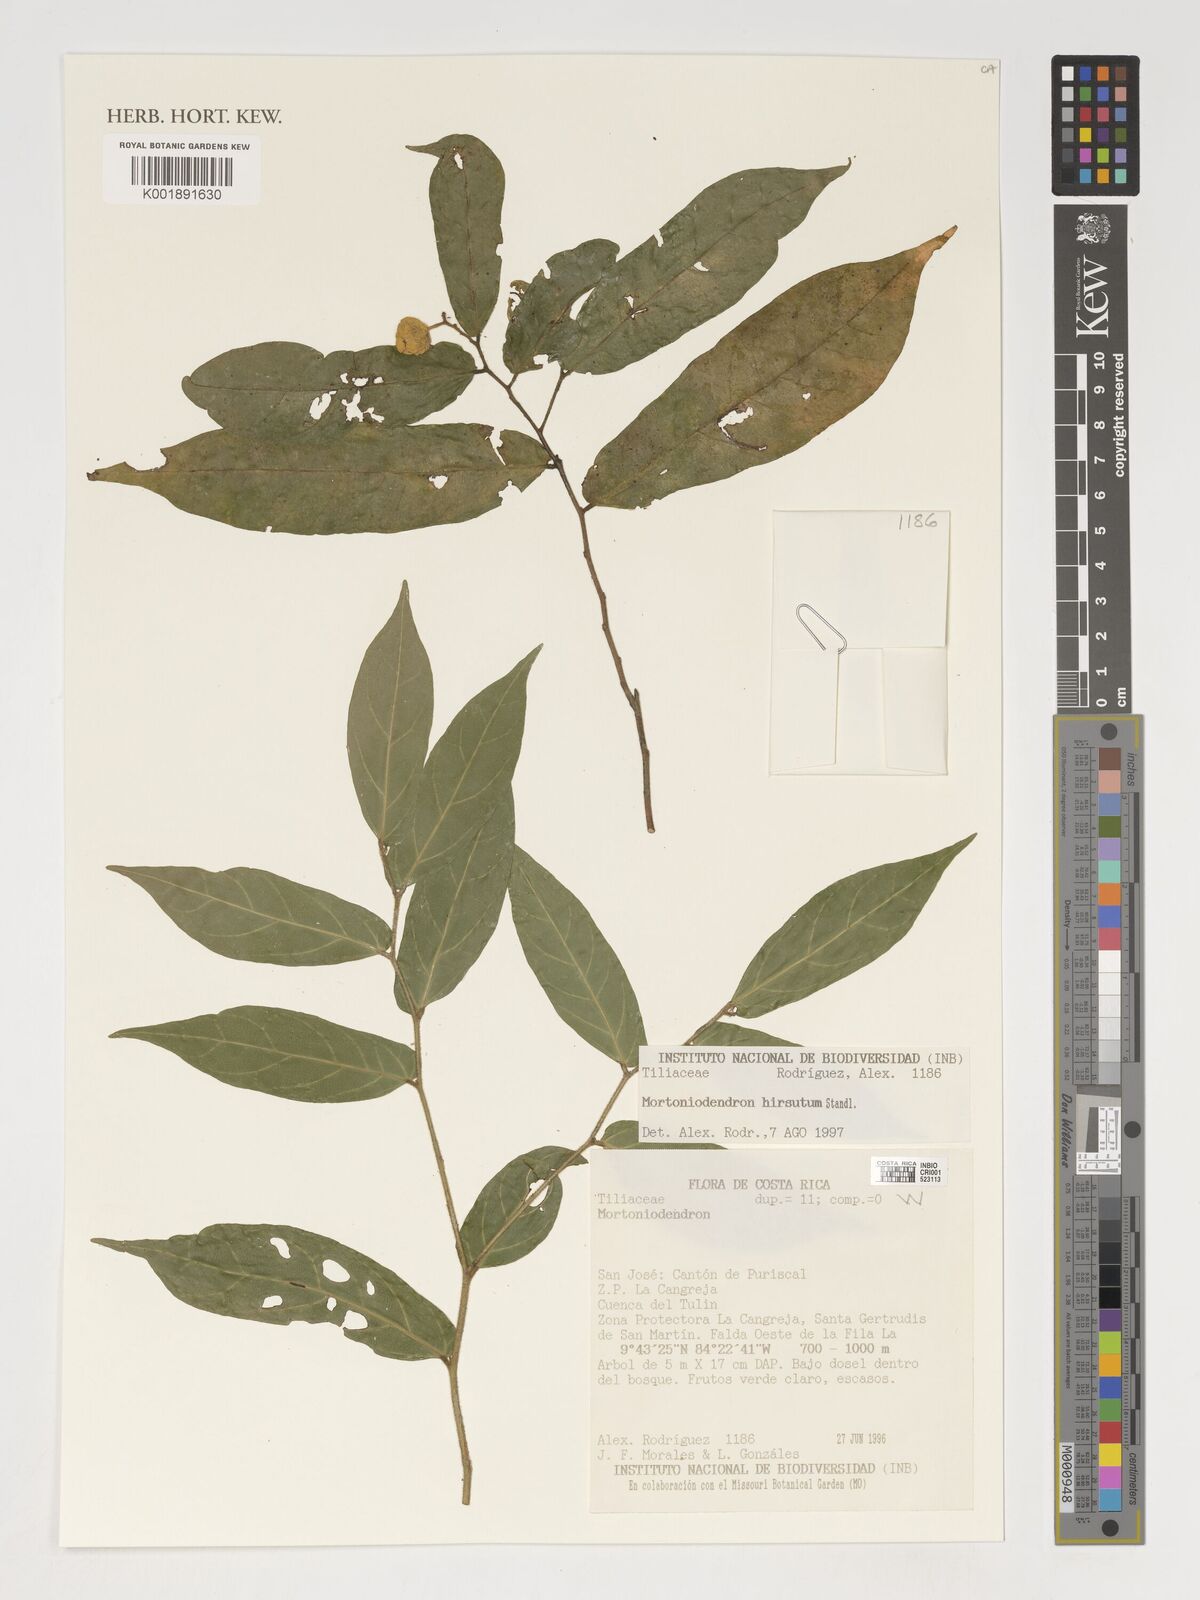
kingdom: Plantae
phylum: Tracheophyta
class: Magnoliopsida
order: Malvales
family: Malvaceae
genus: Mortoniodendron
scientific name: Mortoniodendron hirsutum
